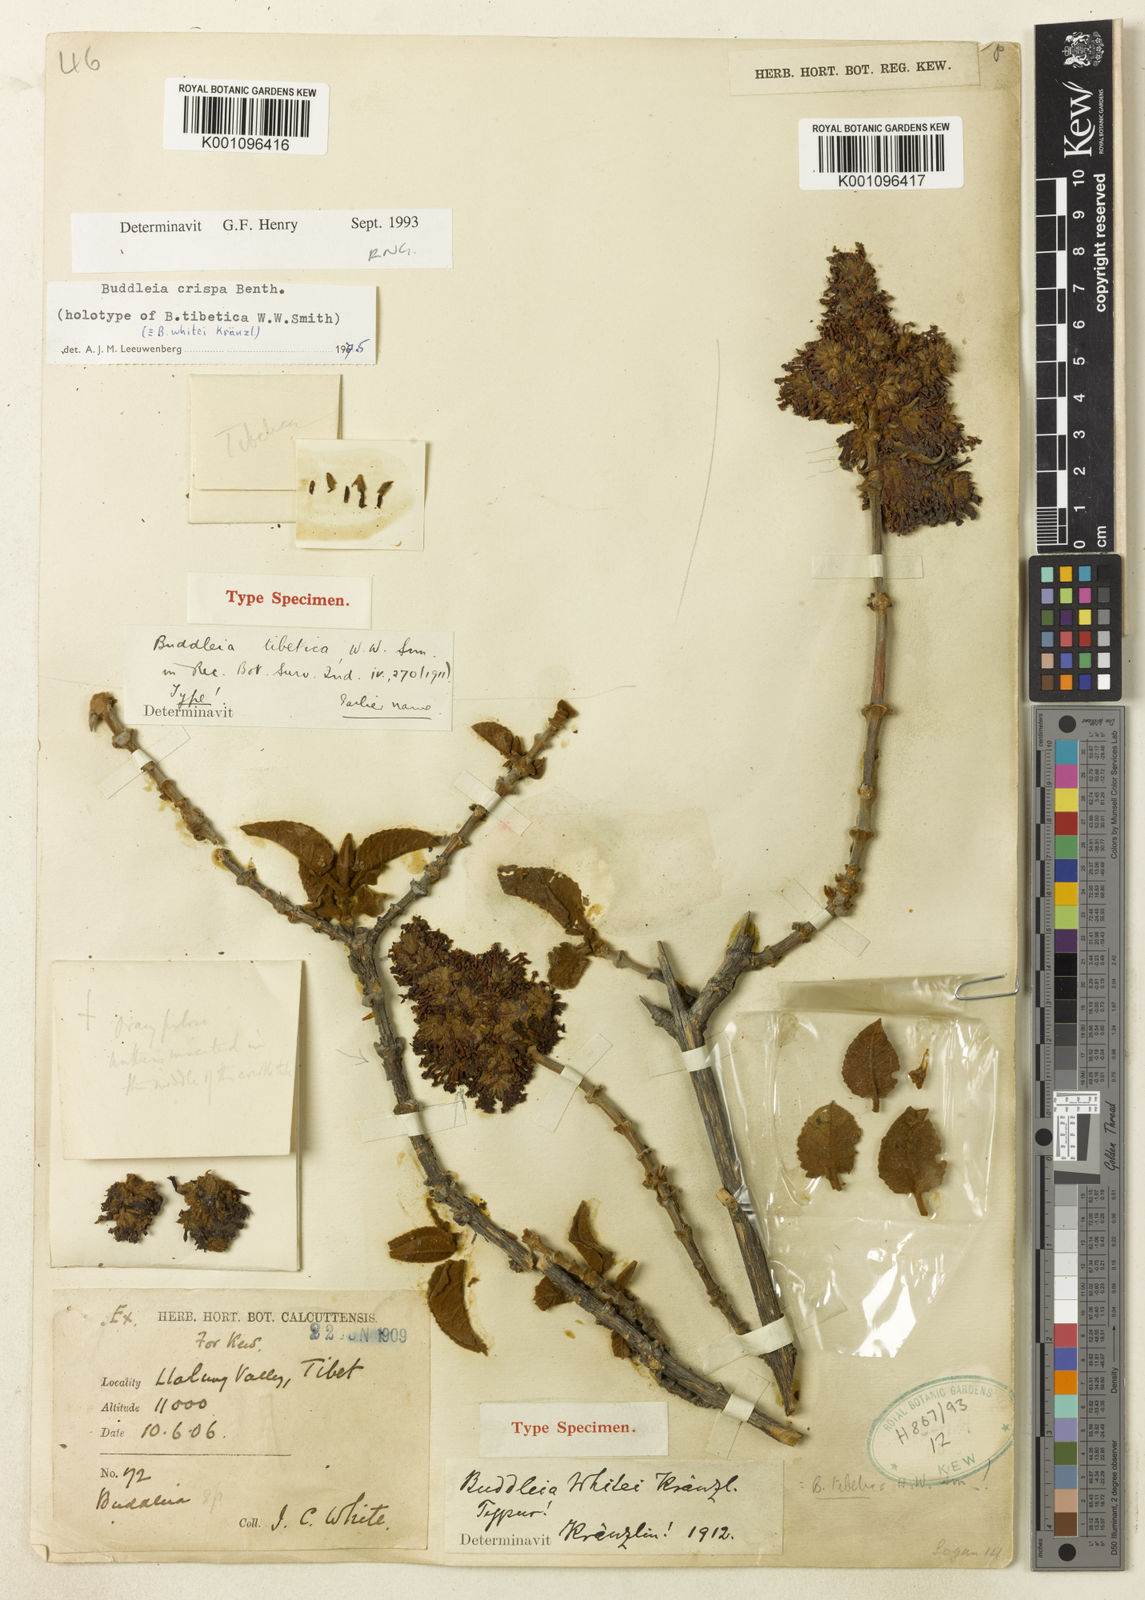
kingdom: Plantae
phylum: Tracheophyta
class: Magnoliopsida
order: Lamiales
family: Scrophulariaceae
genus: Buddleja
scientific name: Buddleja crispa
